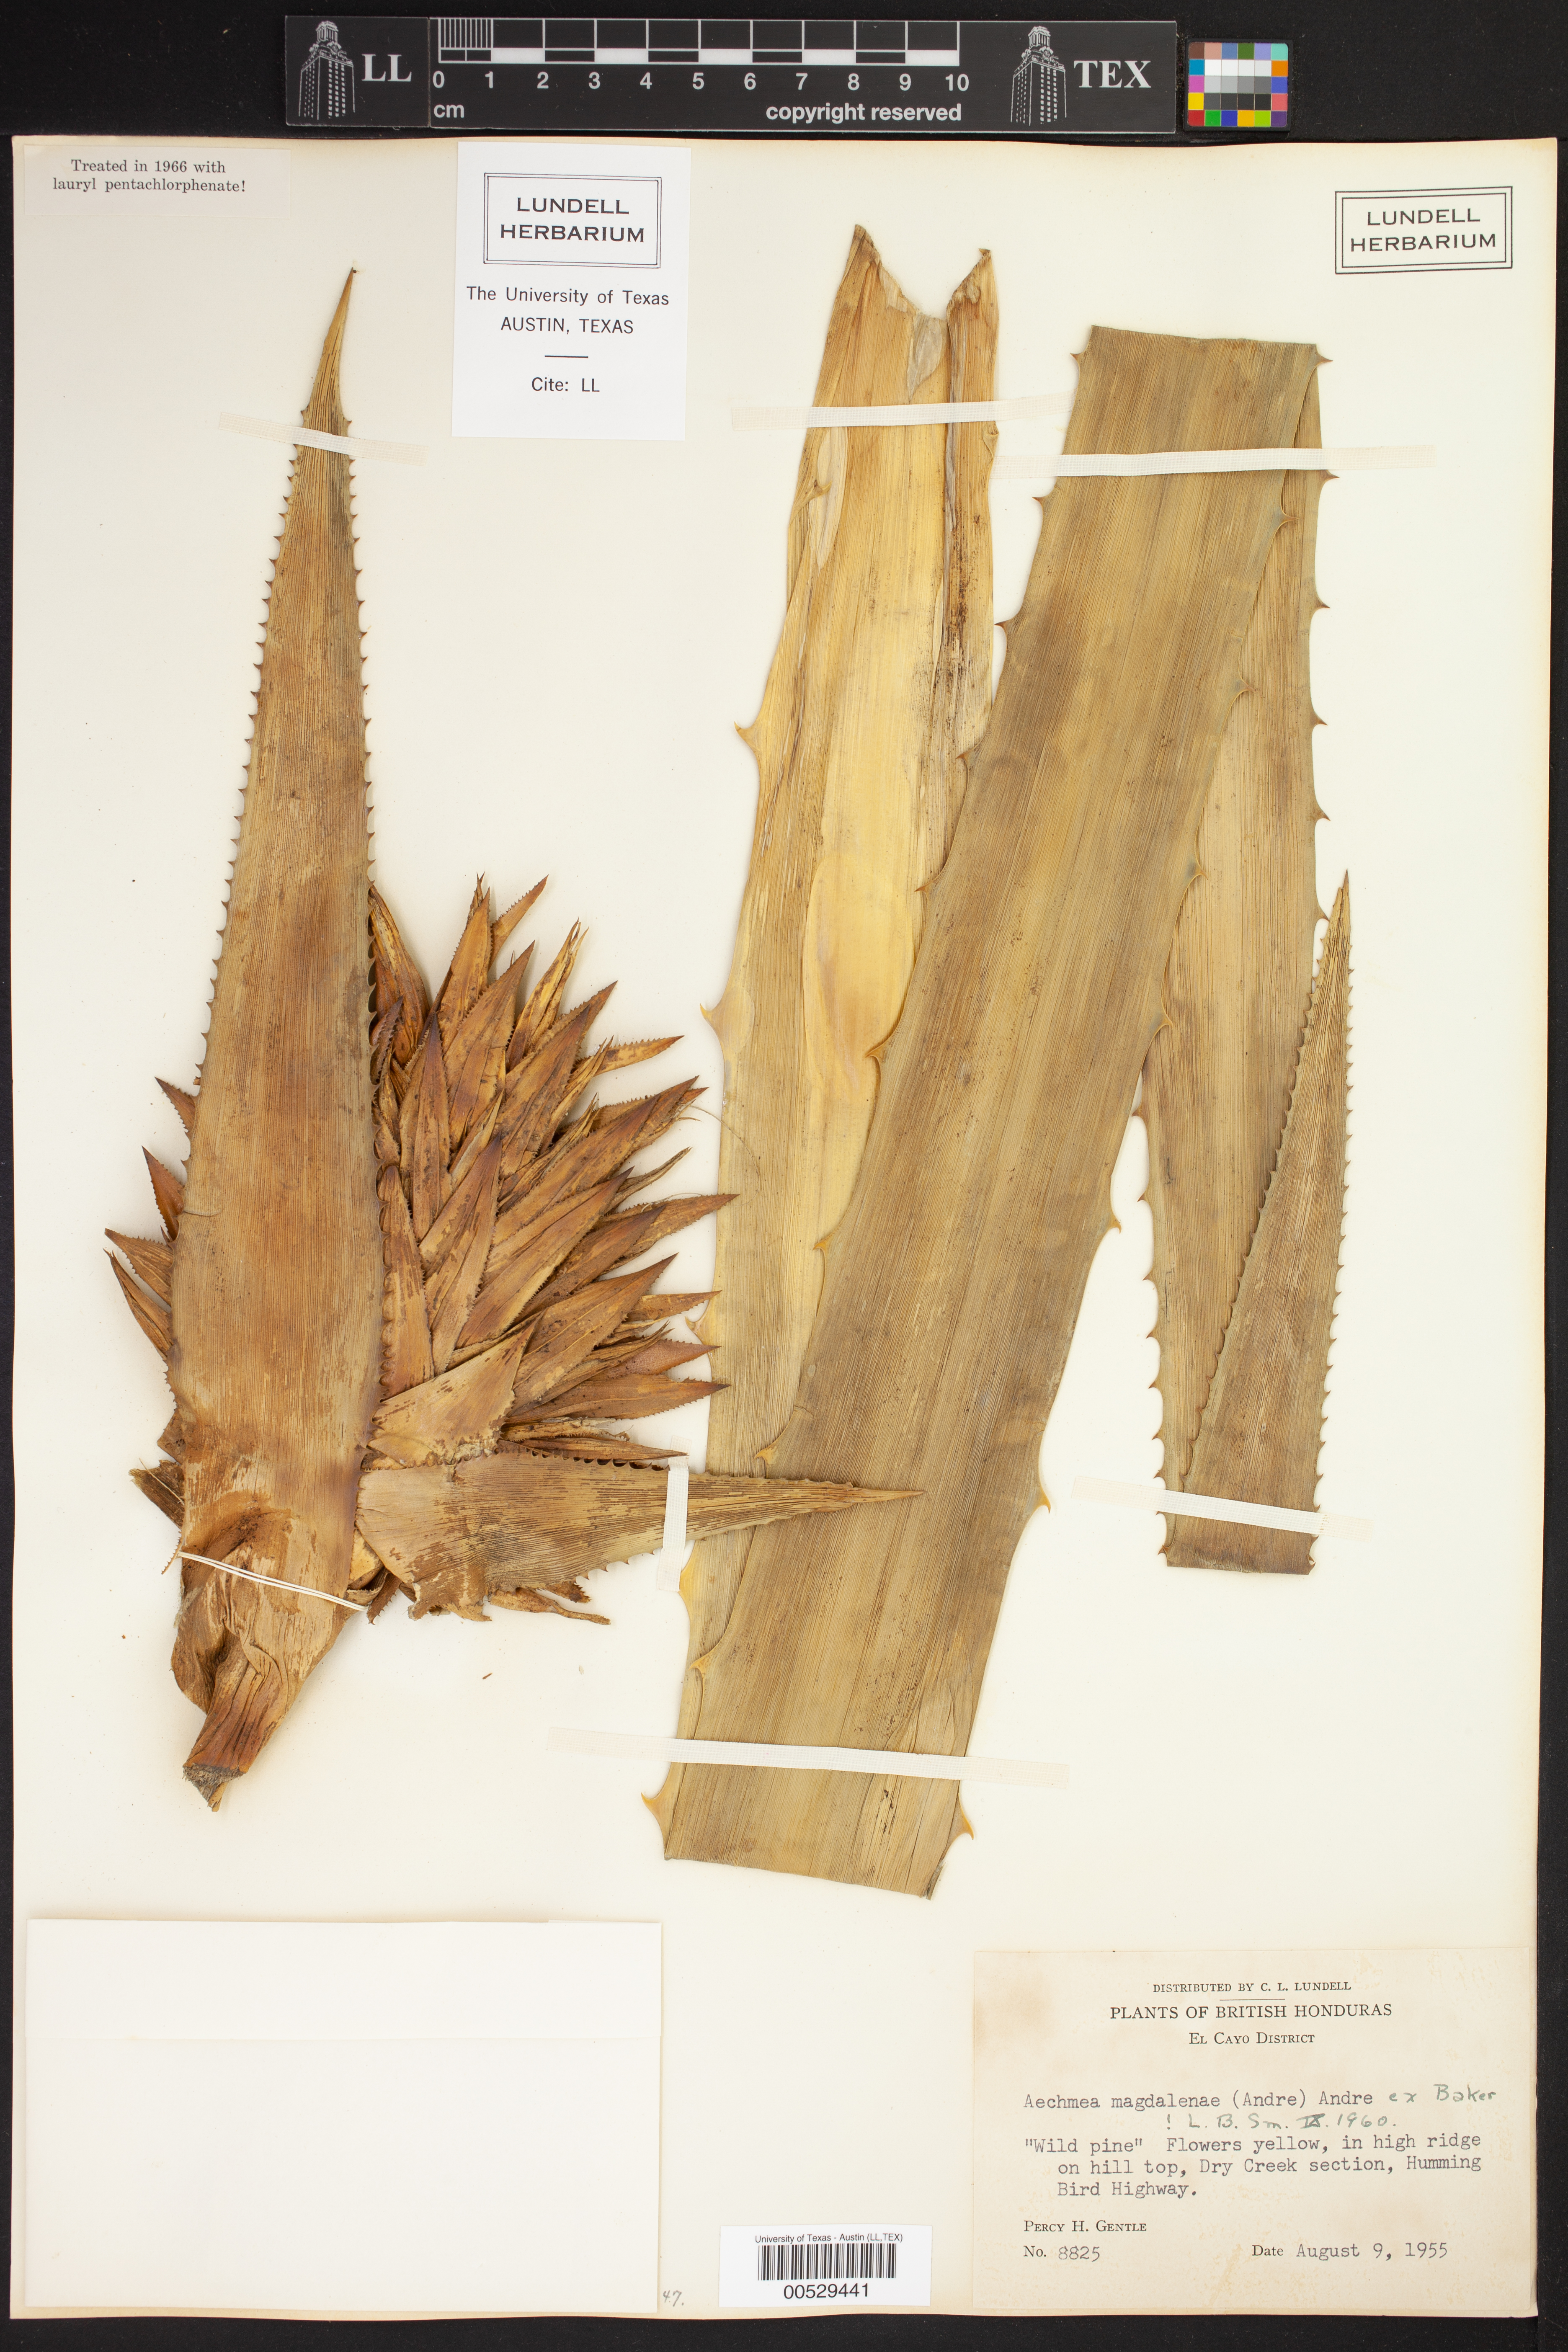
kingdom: Plantae
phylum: Tracheophyta
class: Liliopsida
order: Poales
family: Bromeliaceae
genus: Aechmea
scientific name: Aechmea magdalenae
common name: Arghan
